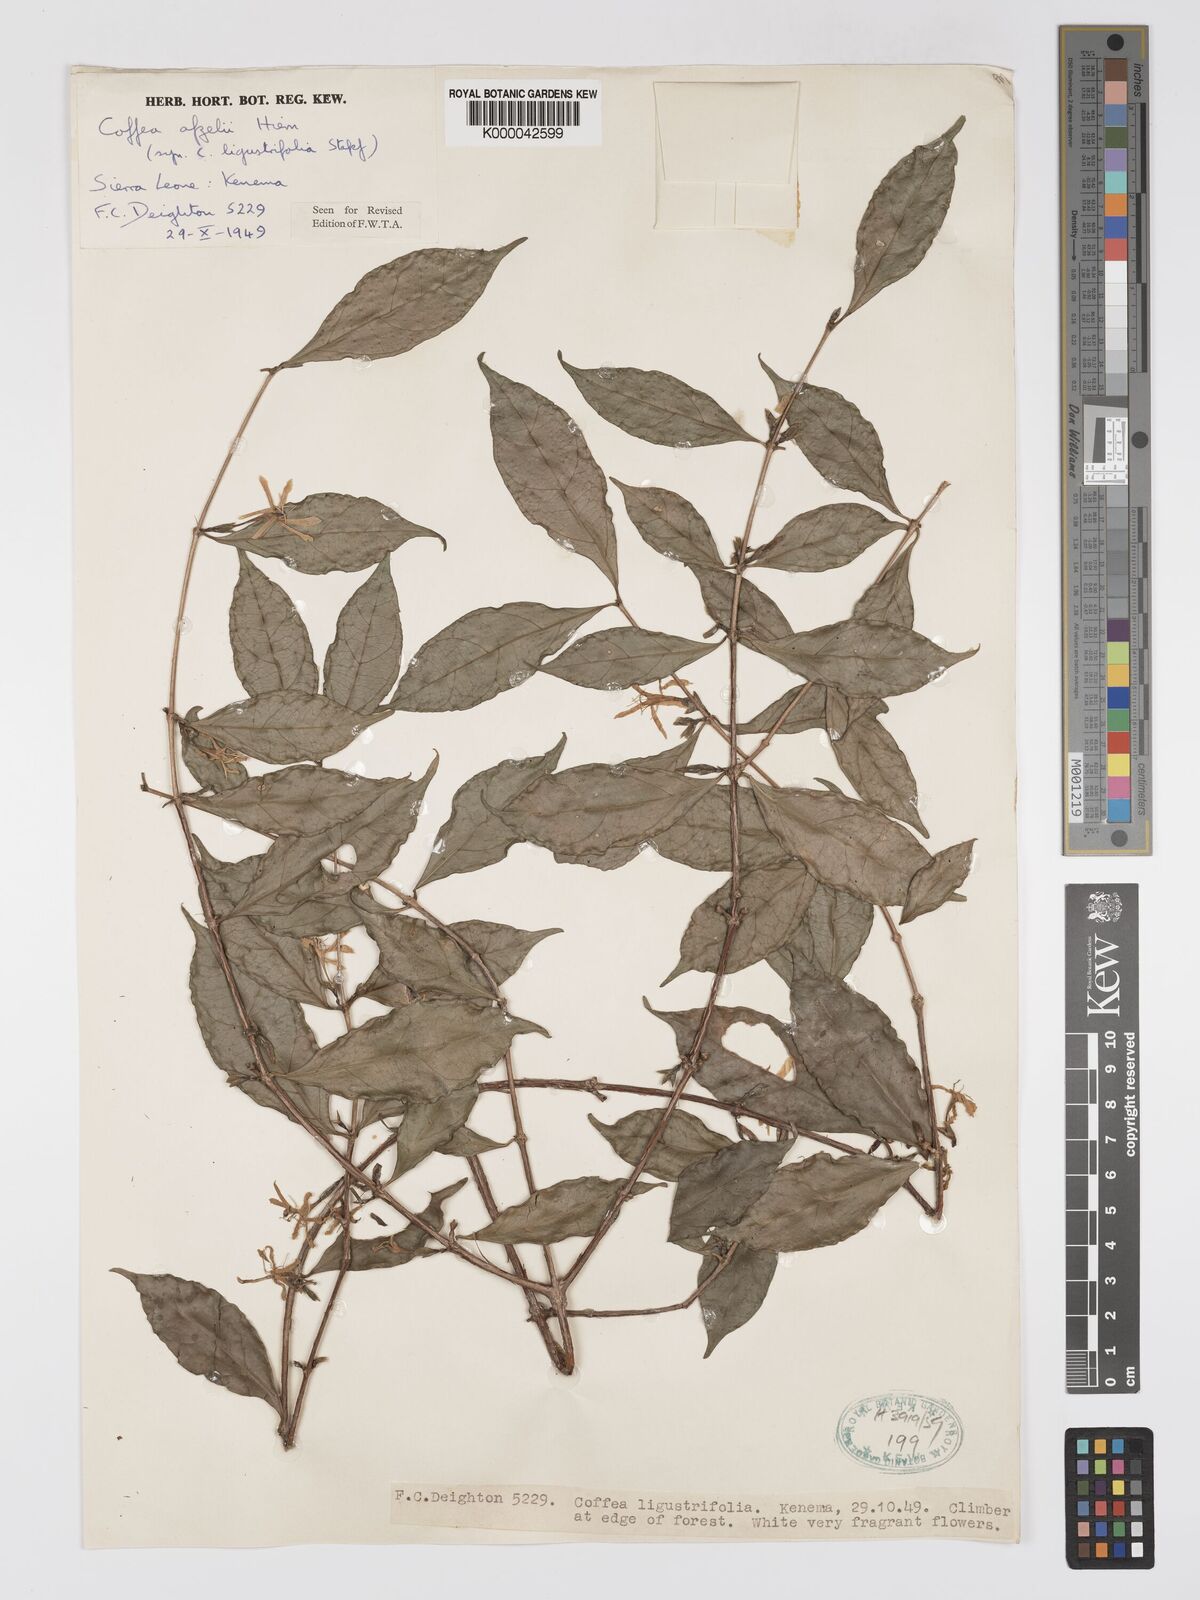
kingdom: Plantae
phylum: Tracheophyta
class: Magnoliopsida
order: Gentianales
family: Rubiaceae
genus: Argocoffeopsis
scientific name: Argocoffeopsis afzelii
